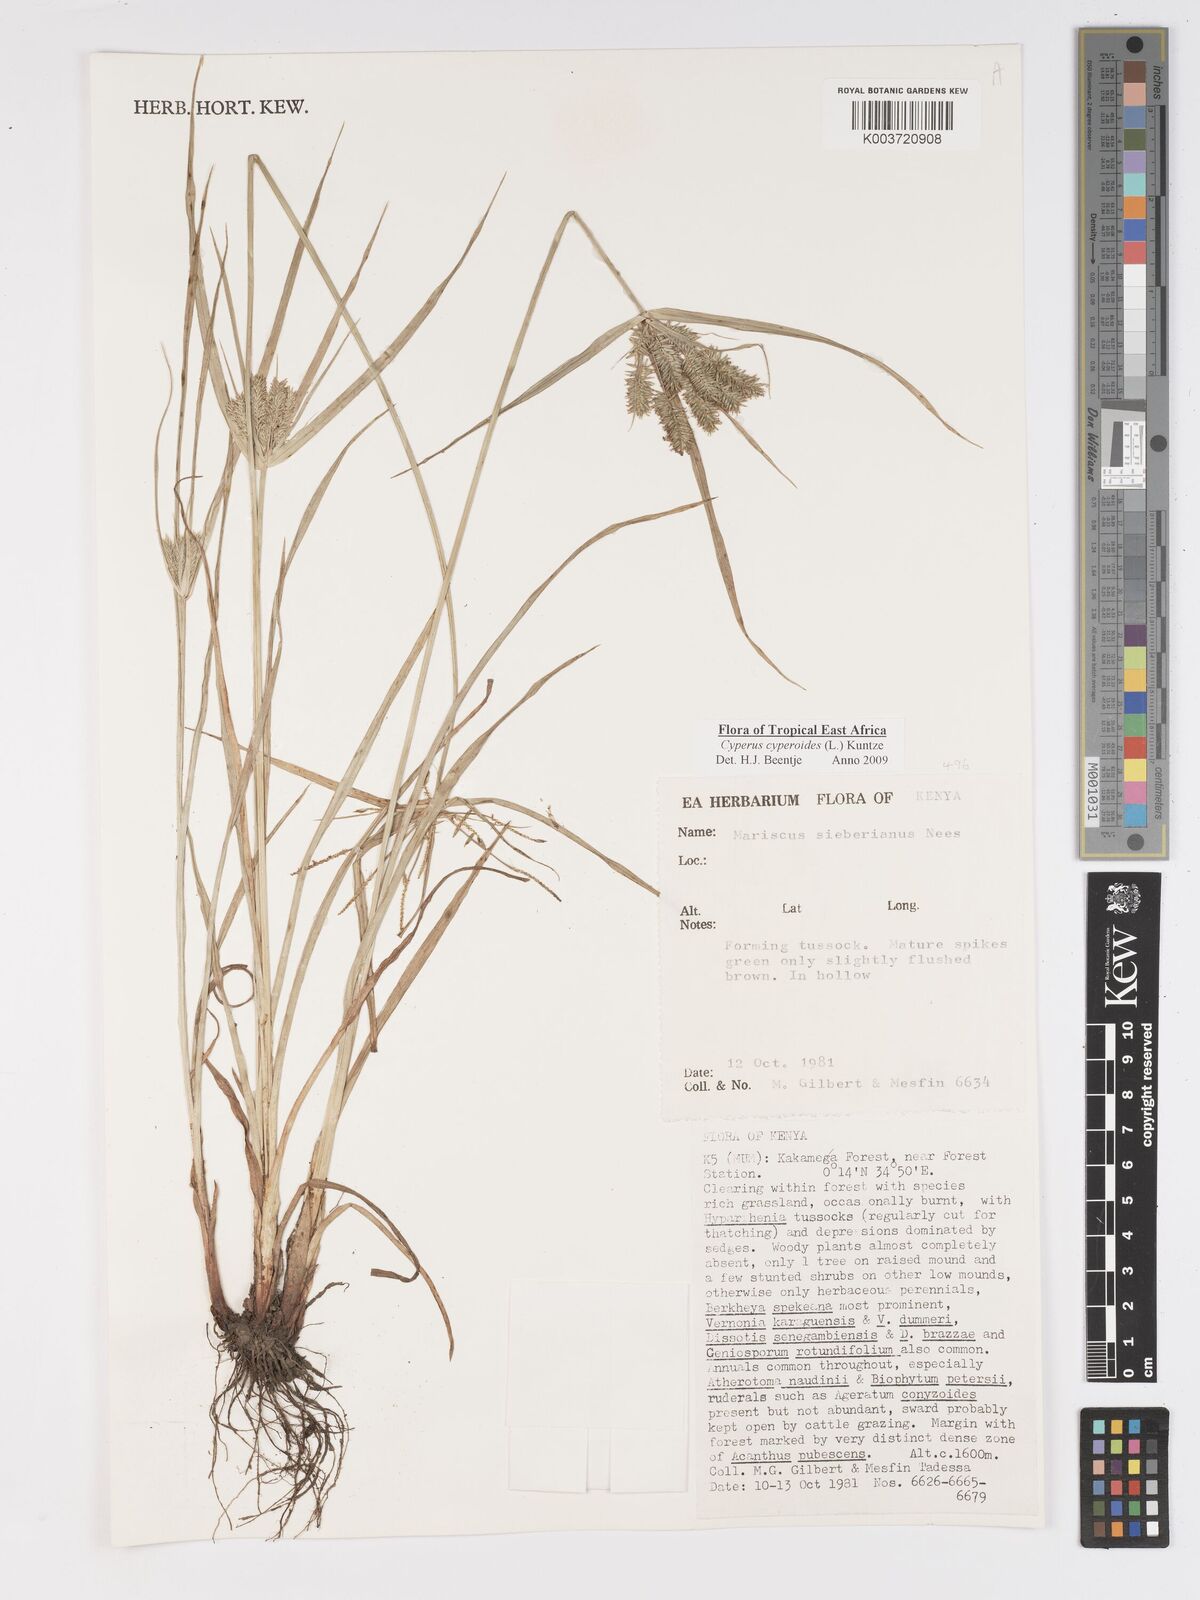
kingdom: Plantae
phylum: Tracheophyta
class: Liliopsida
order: Poales
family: Cyperaceae
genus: Cyperus
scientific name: Cyperus cyperoides
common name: Pacific island flat sedge
